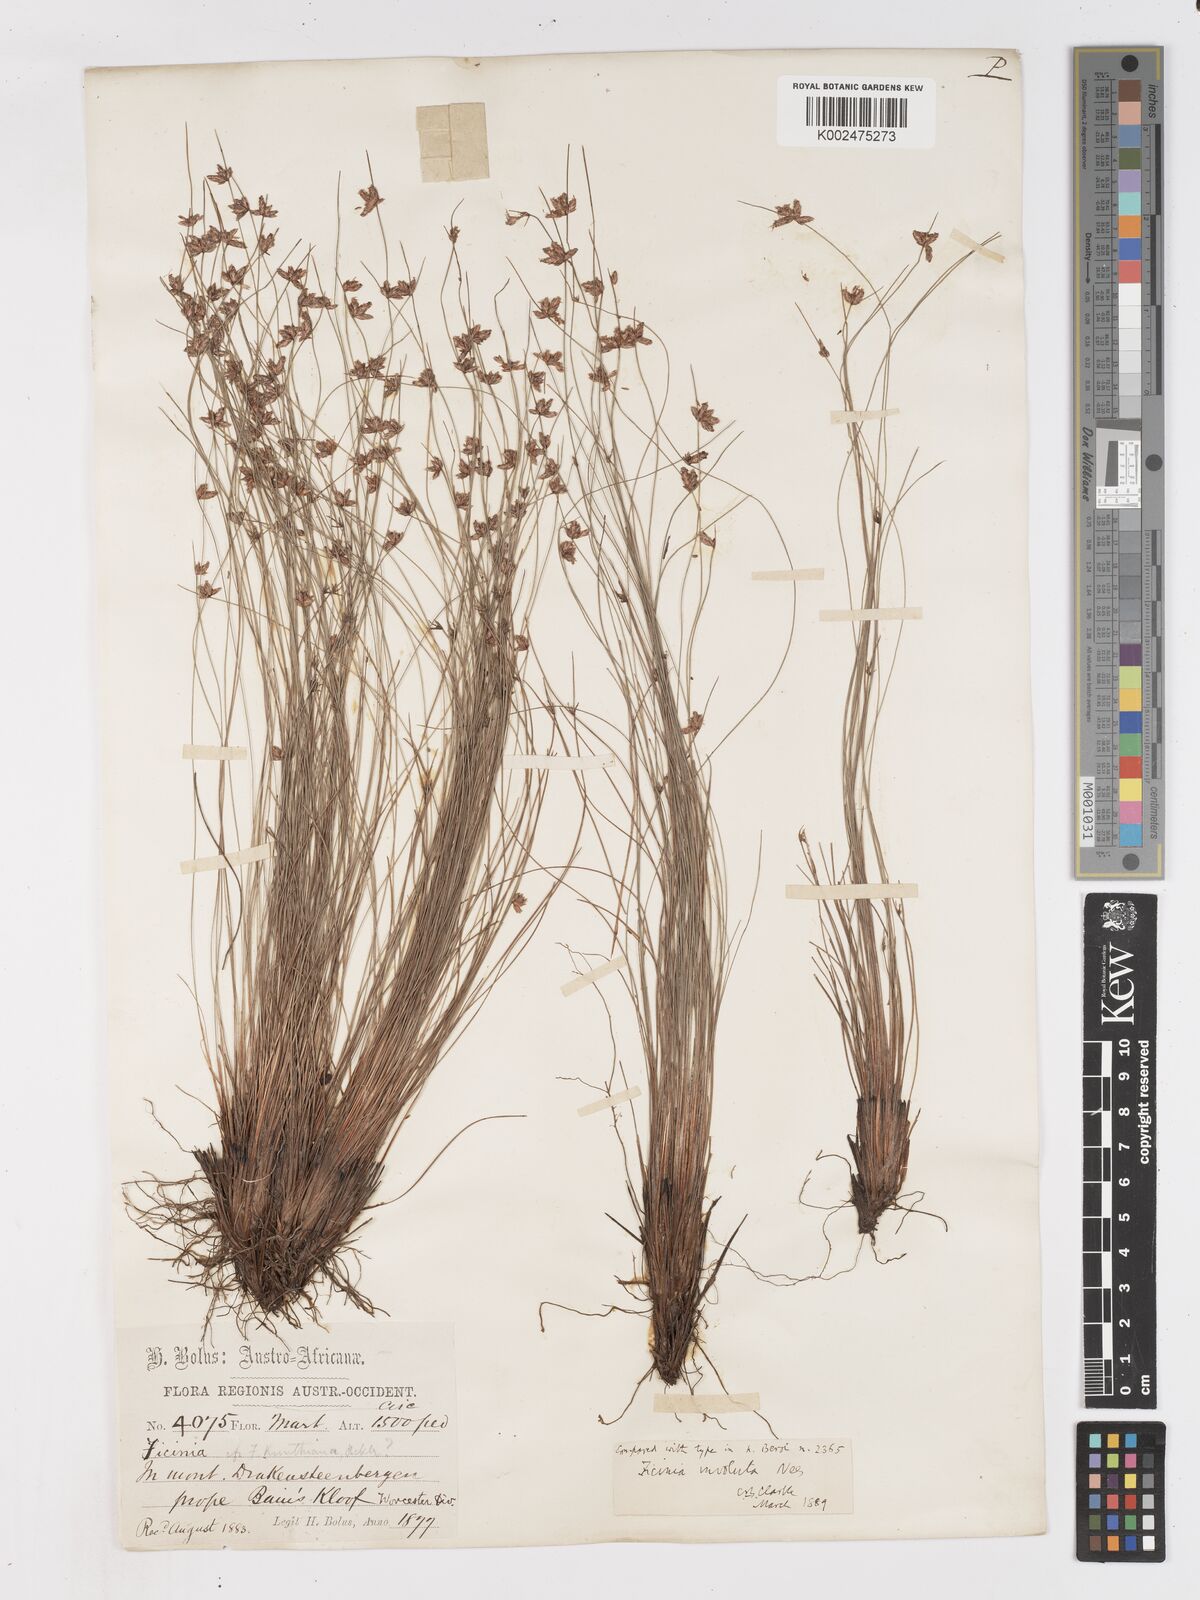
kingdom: Plantae
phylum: Tracheophyta
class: Liliopsida
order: Poales
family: Cyperaceae
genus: Ficinia
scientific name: Ficinia involuta
